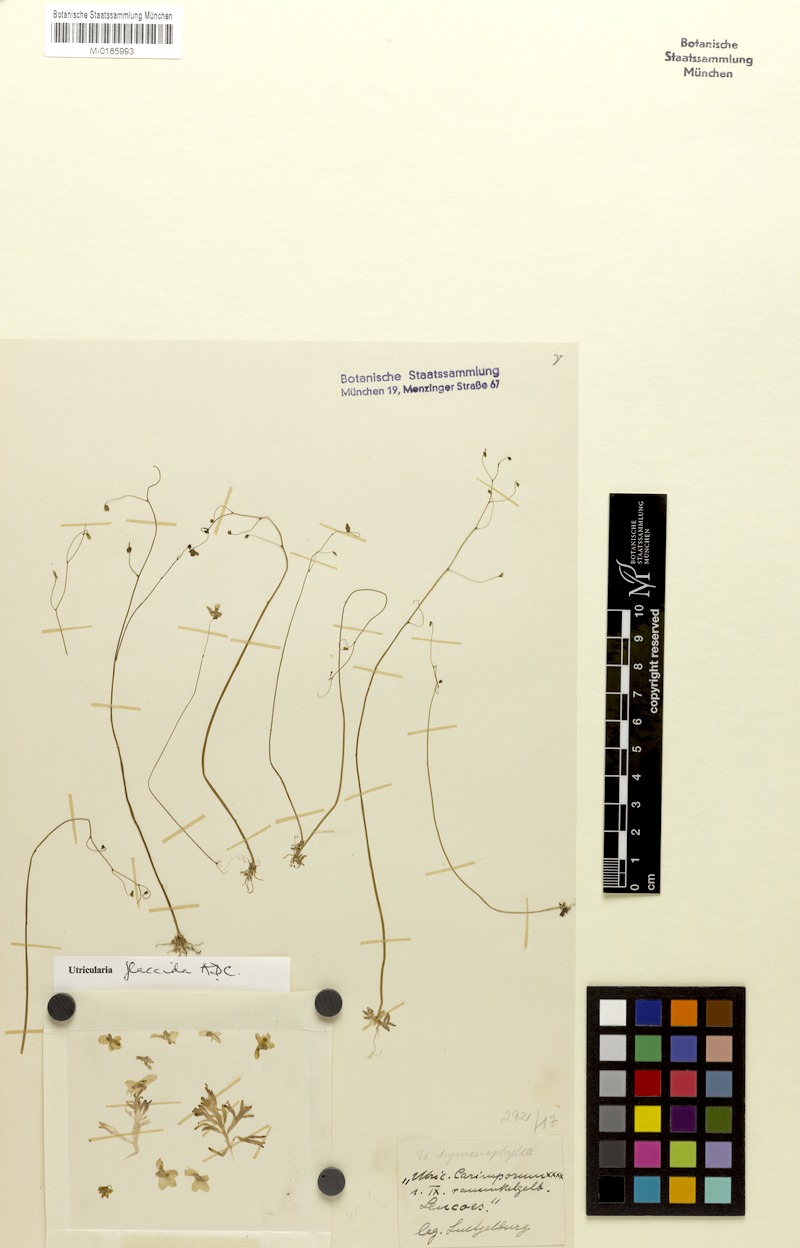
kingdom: Plantae
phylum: Tracheophyta
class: Magnoliopsida
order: Lamiales
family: Lentibulariaceae
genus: Utricularia
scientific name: Utricularia flaccida
